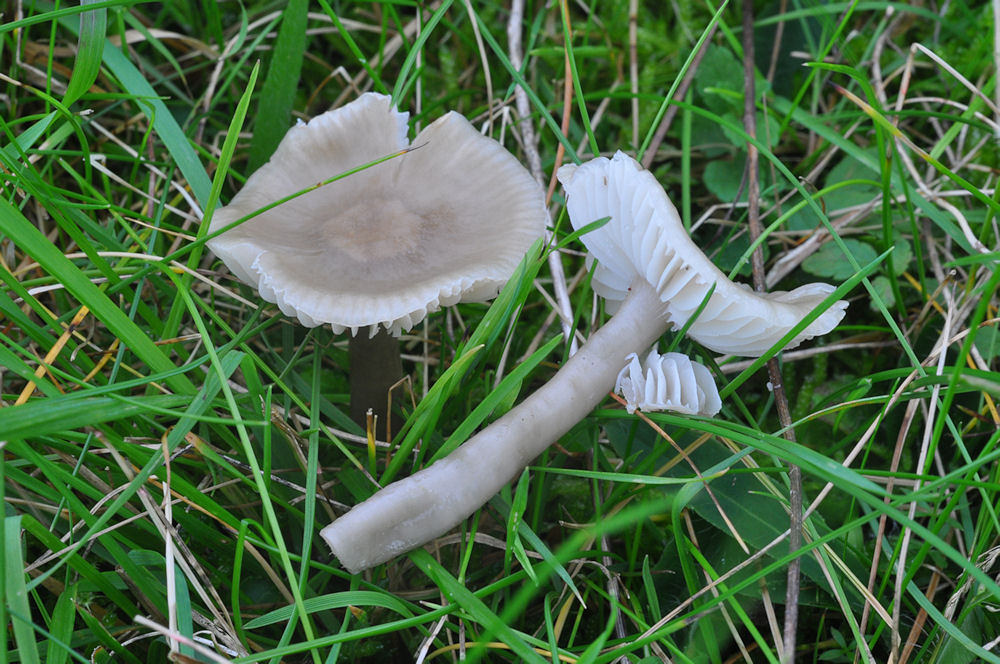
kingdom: Fungi
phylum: Basidiomycota
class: Agaricomycetes
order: Agaricales
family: Hygrophoraceae
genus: Gliophorus
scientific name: Gliophorus irrigatus
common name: slimet vokshat
